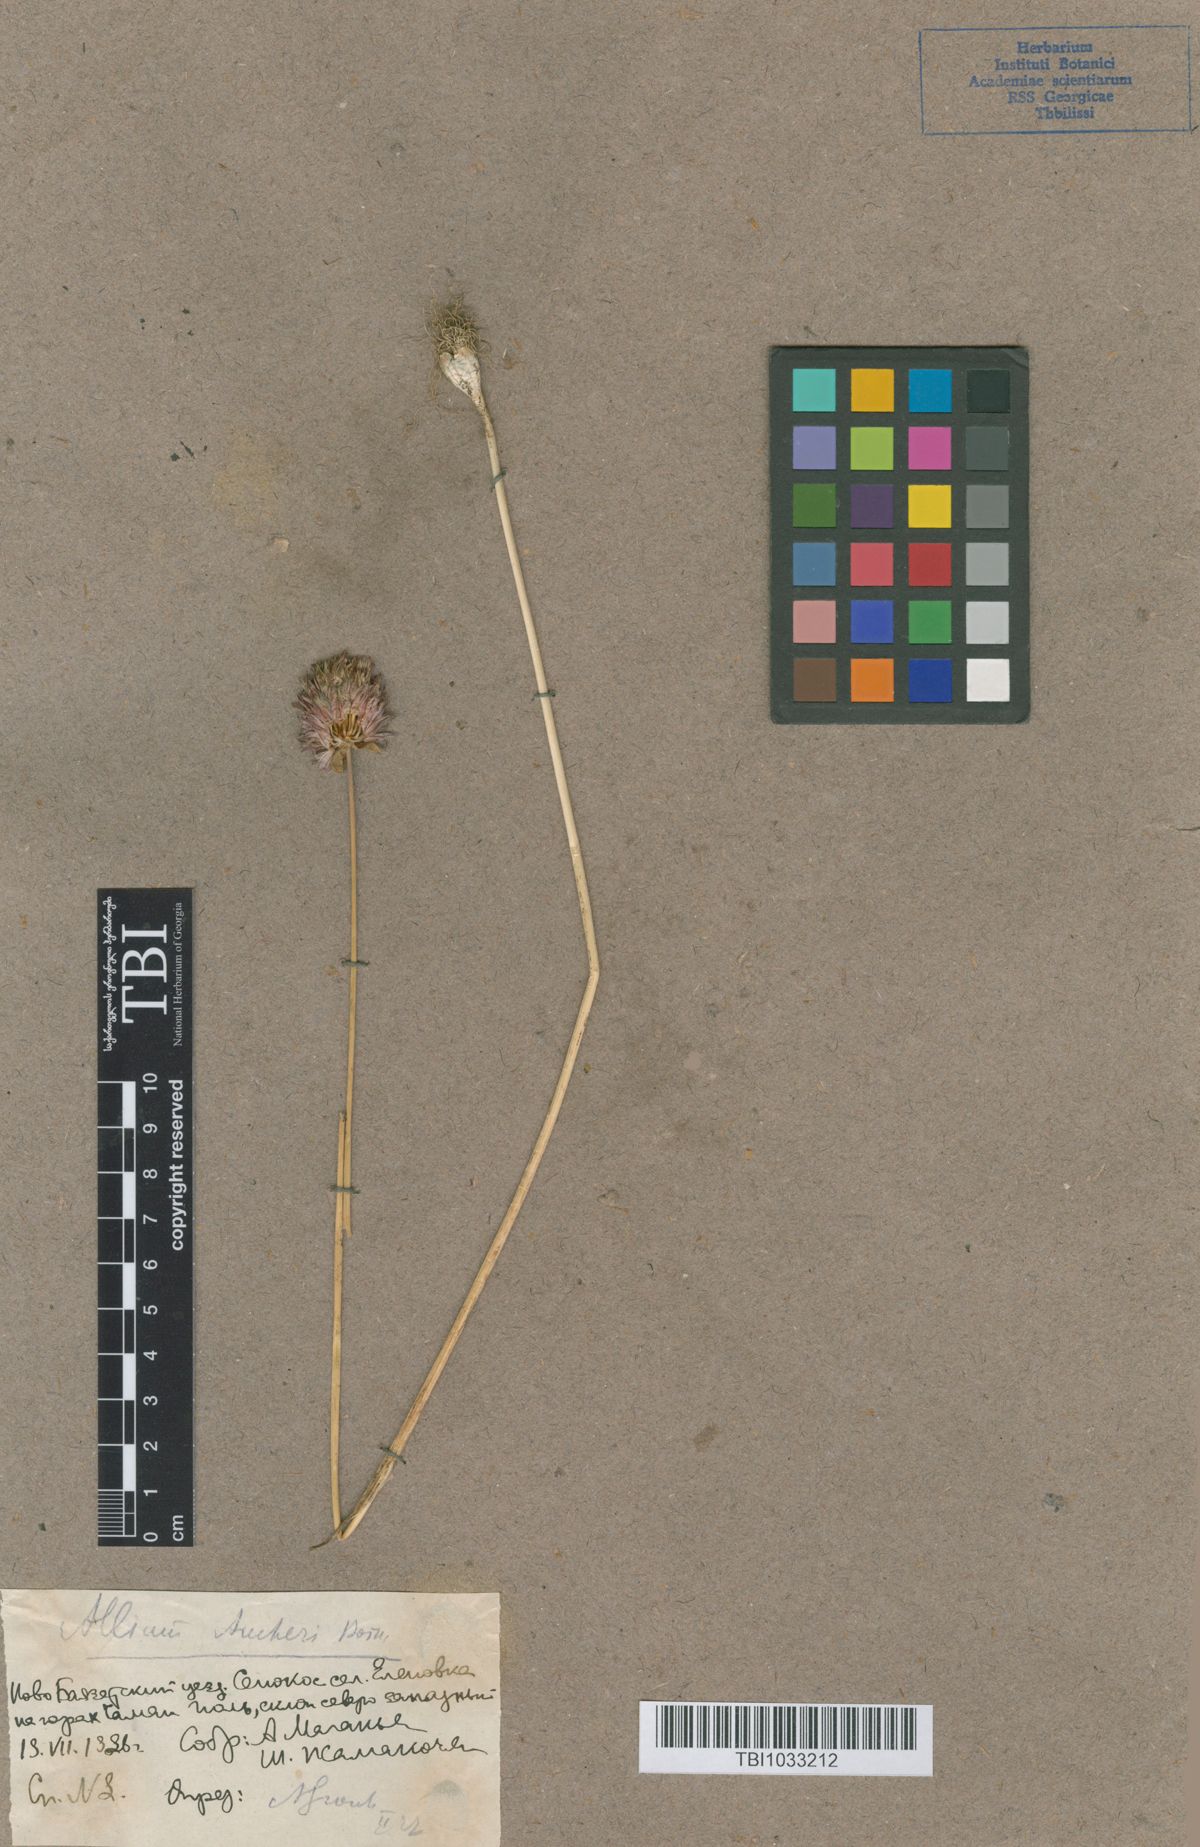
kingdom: Plantae
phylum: Tracheophyta
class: Liliopsida
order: Asparagales
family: Amaryllidaceae
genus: Allium
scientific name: Allium aucheri
